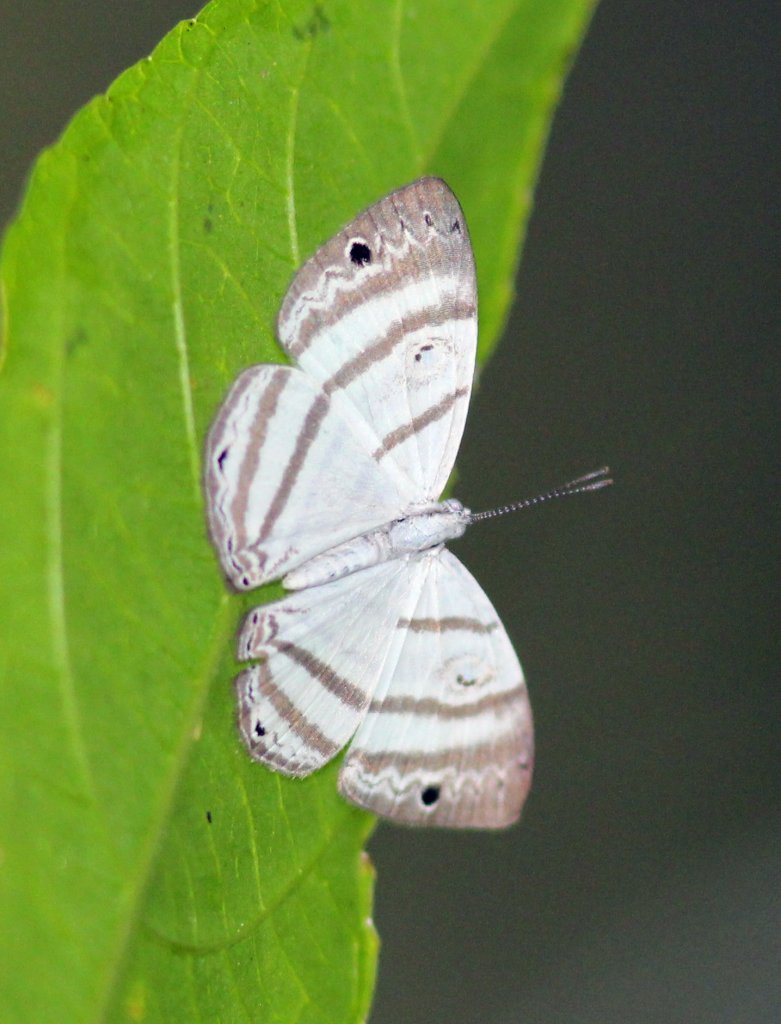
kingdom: Animalia
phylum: Arthropoda
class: Insecta
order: Lepidoptera
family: Riodinidae
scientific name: Riodinidae
